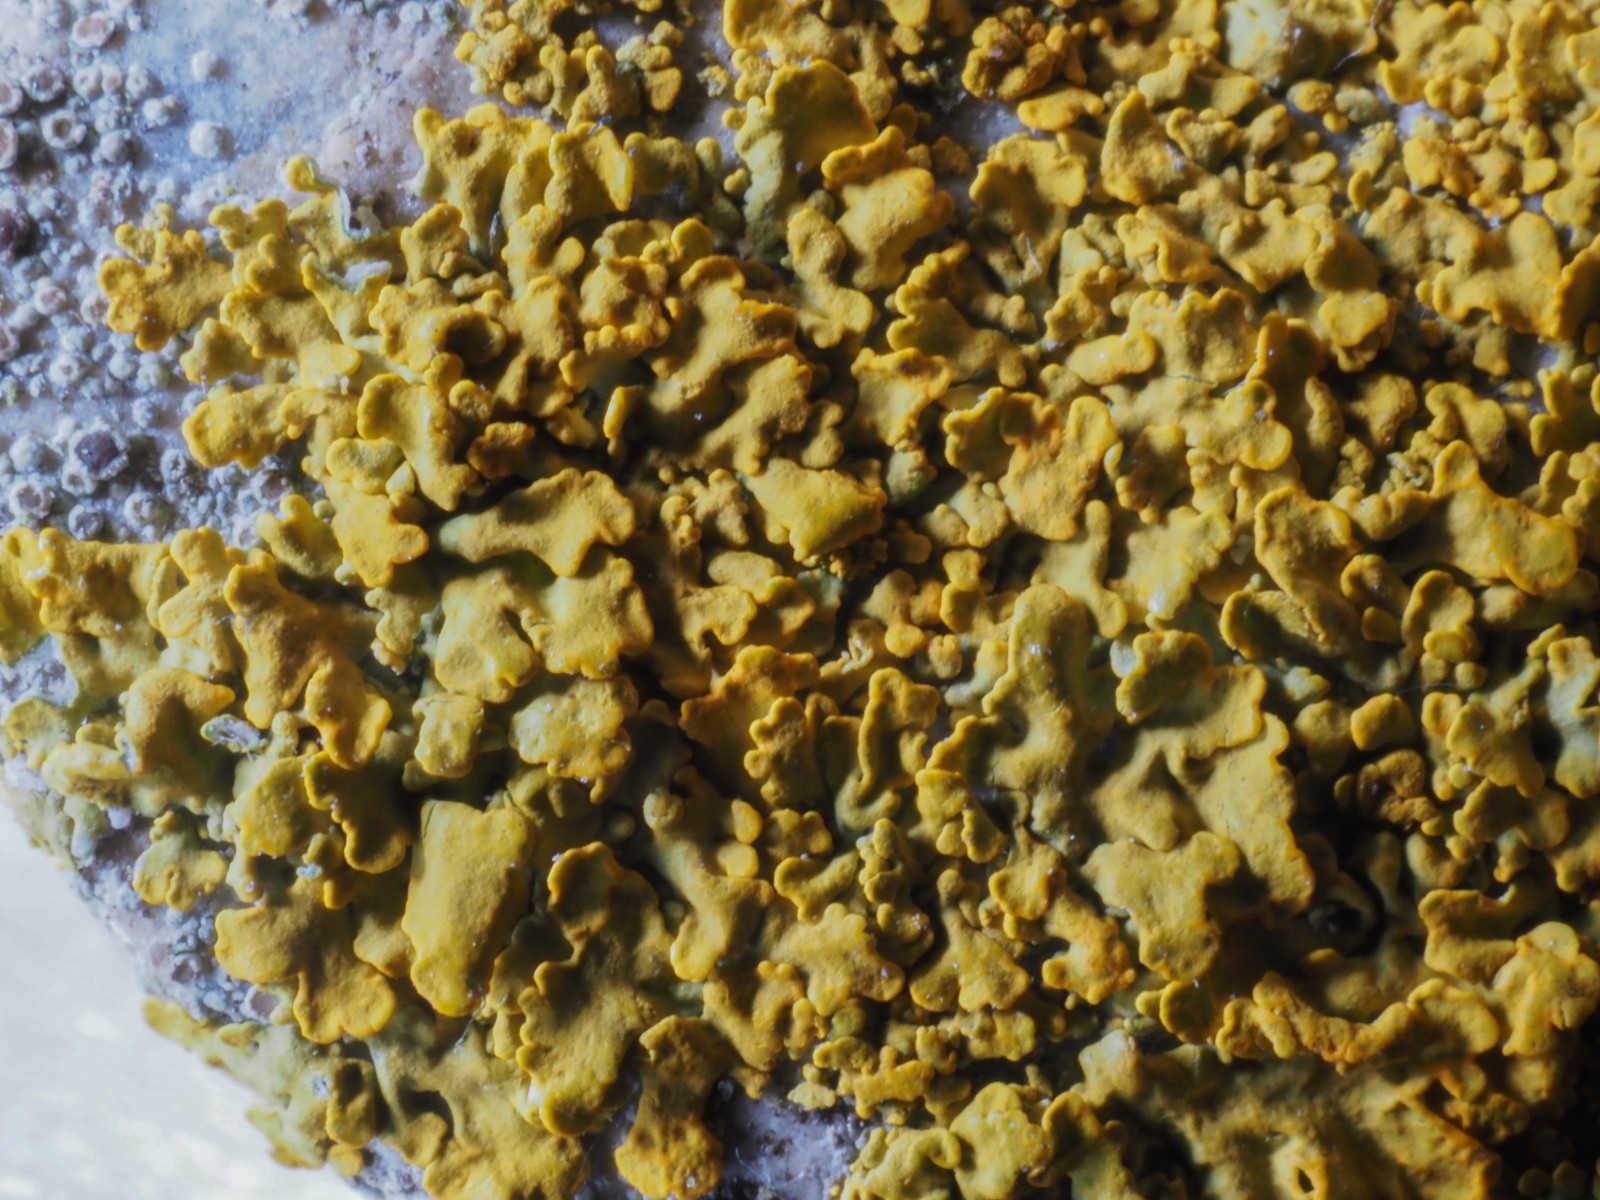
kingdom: Fungi
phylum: Ascomycota
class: Lecanoromycetes
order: Teloschistales
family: Teloschistaceae
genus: Xanthoria
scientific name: Xanthoria aureola
